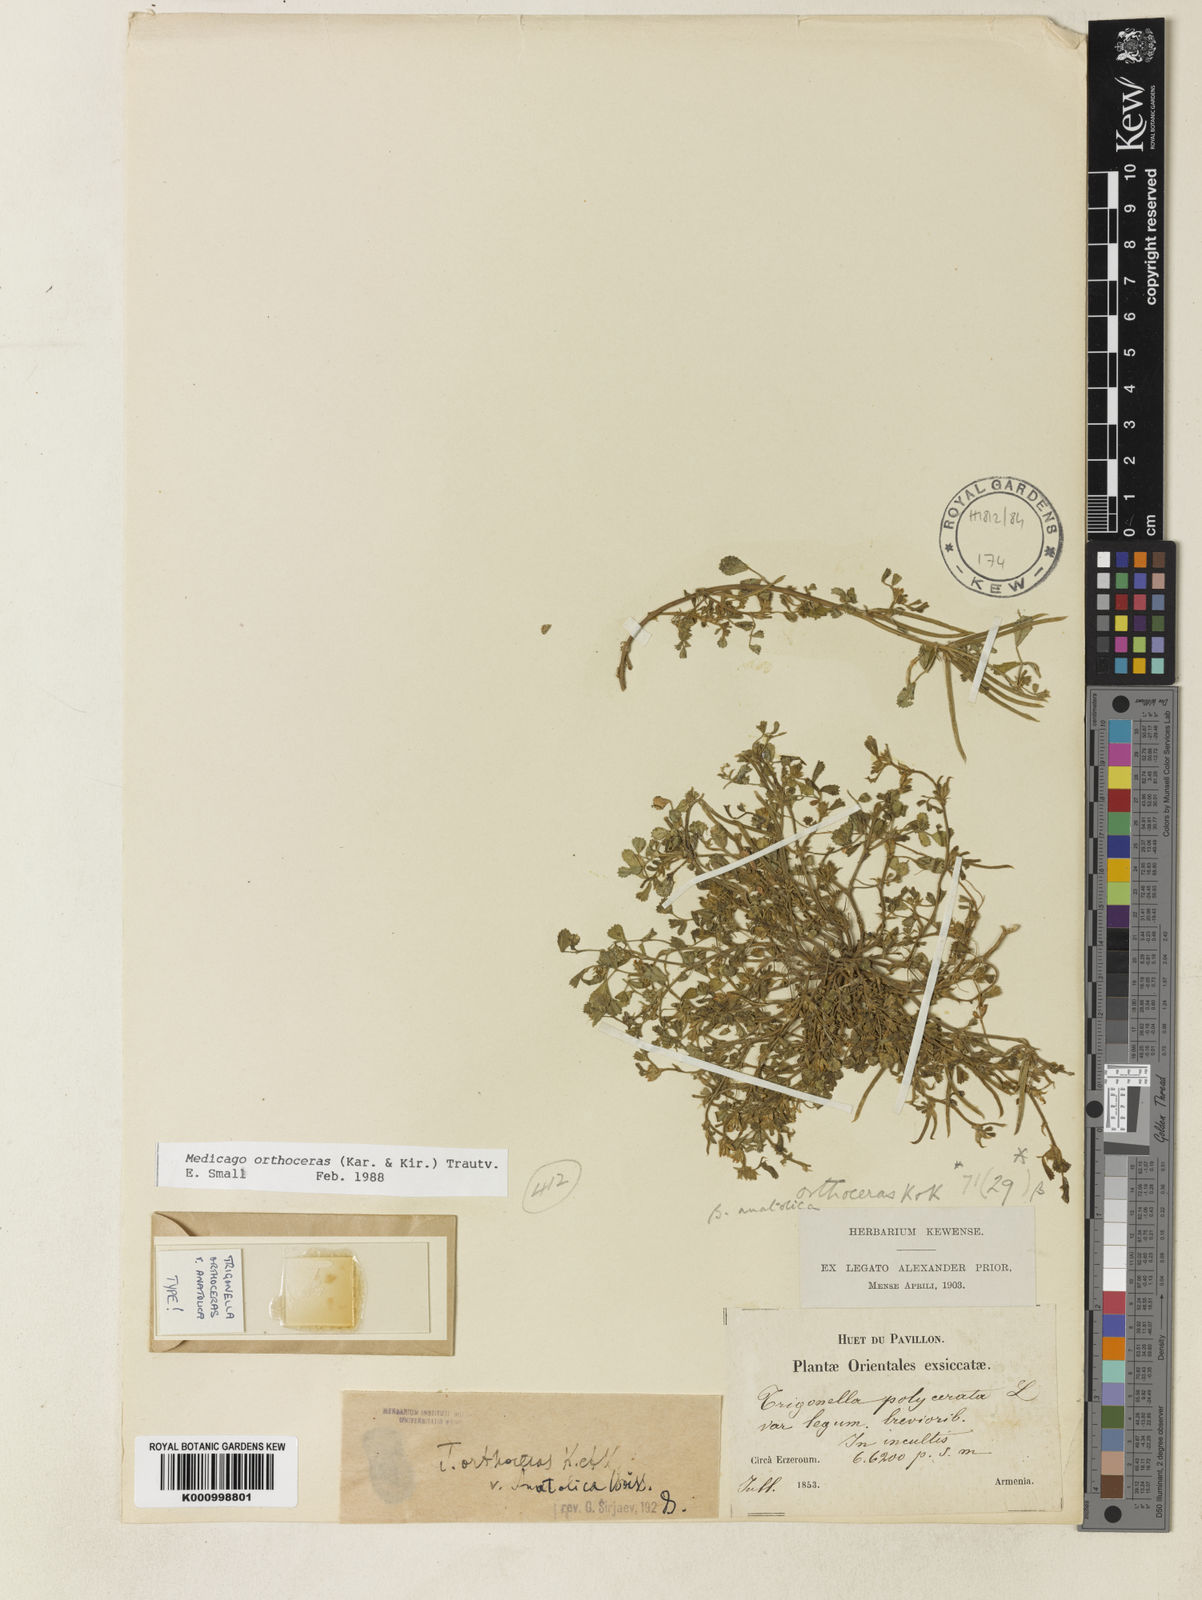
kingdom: Plantae
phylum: Tracheophyta
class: Magnoliopsida
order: Fabales
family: Fabaceae
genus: Medicago
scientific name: Medicago orthoceras
